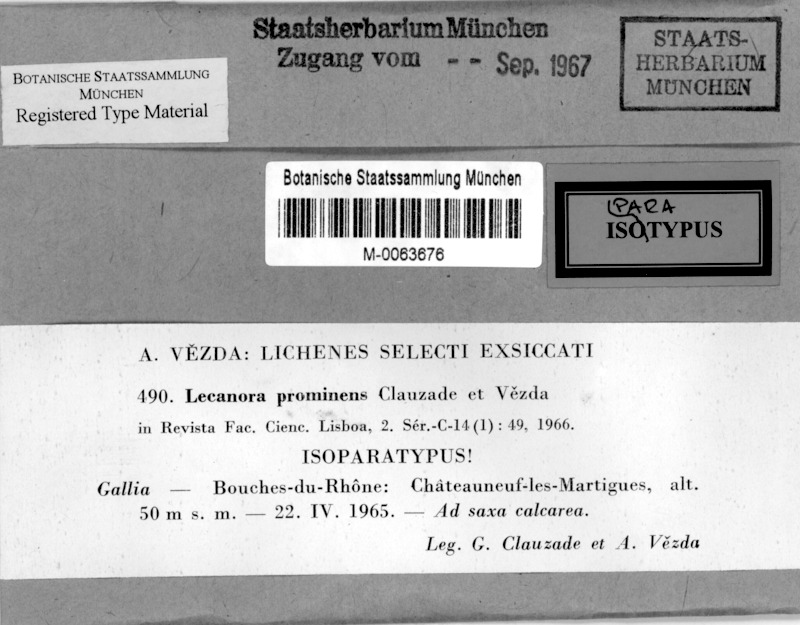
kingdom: Fungi
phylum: Ascomycota
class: Lecanoromycetes
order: Lecanorales
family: Lecanoraceae
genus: Polyozosia
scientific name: Polyozosia prominens
